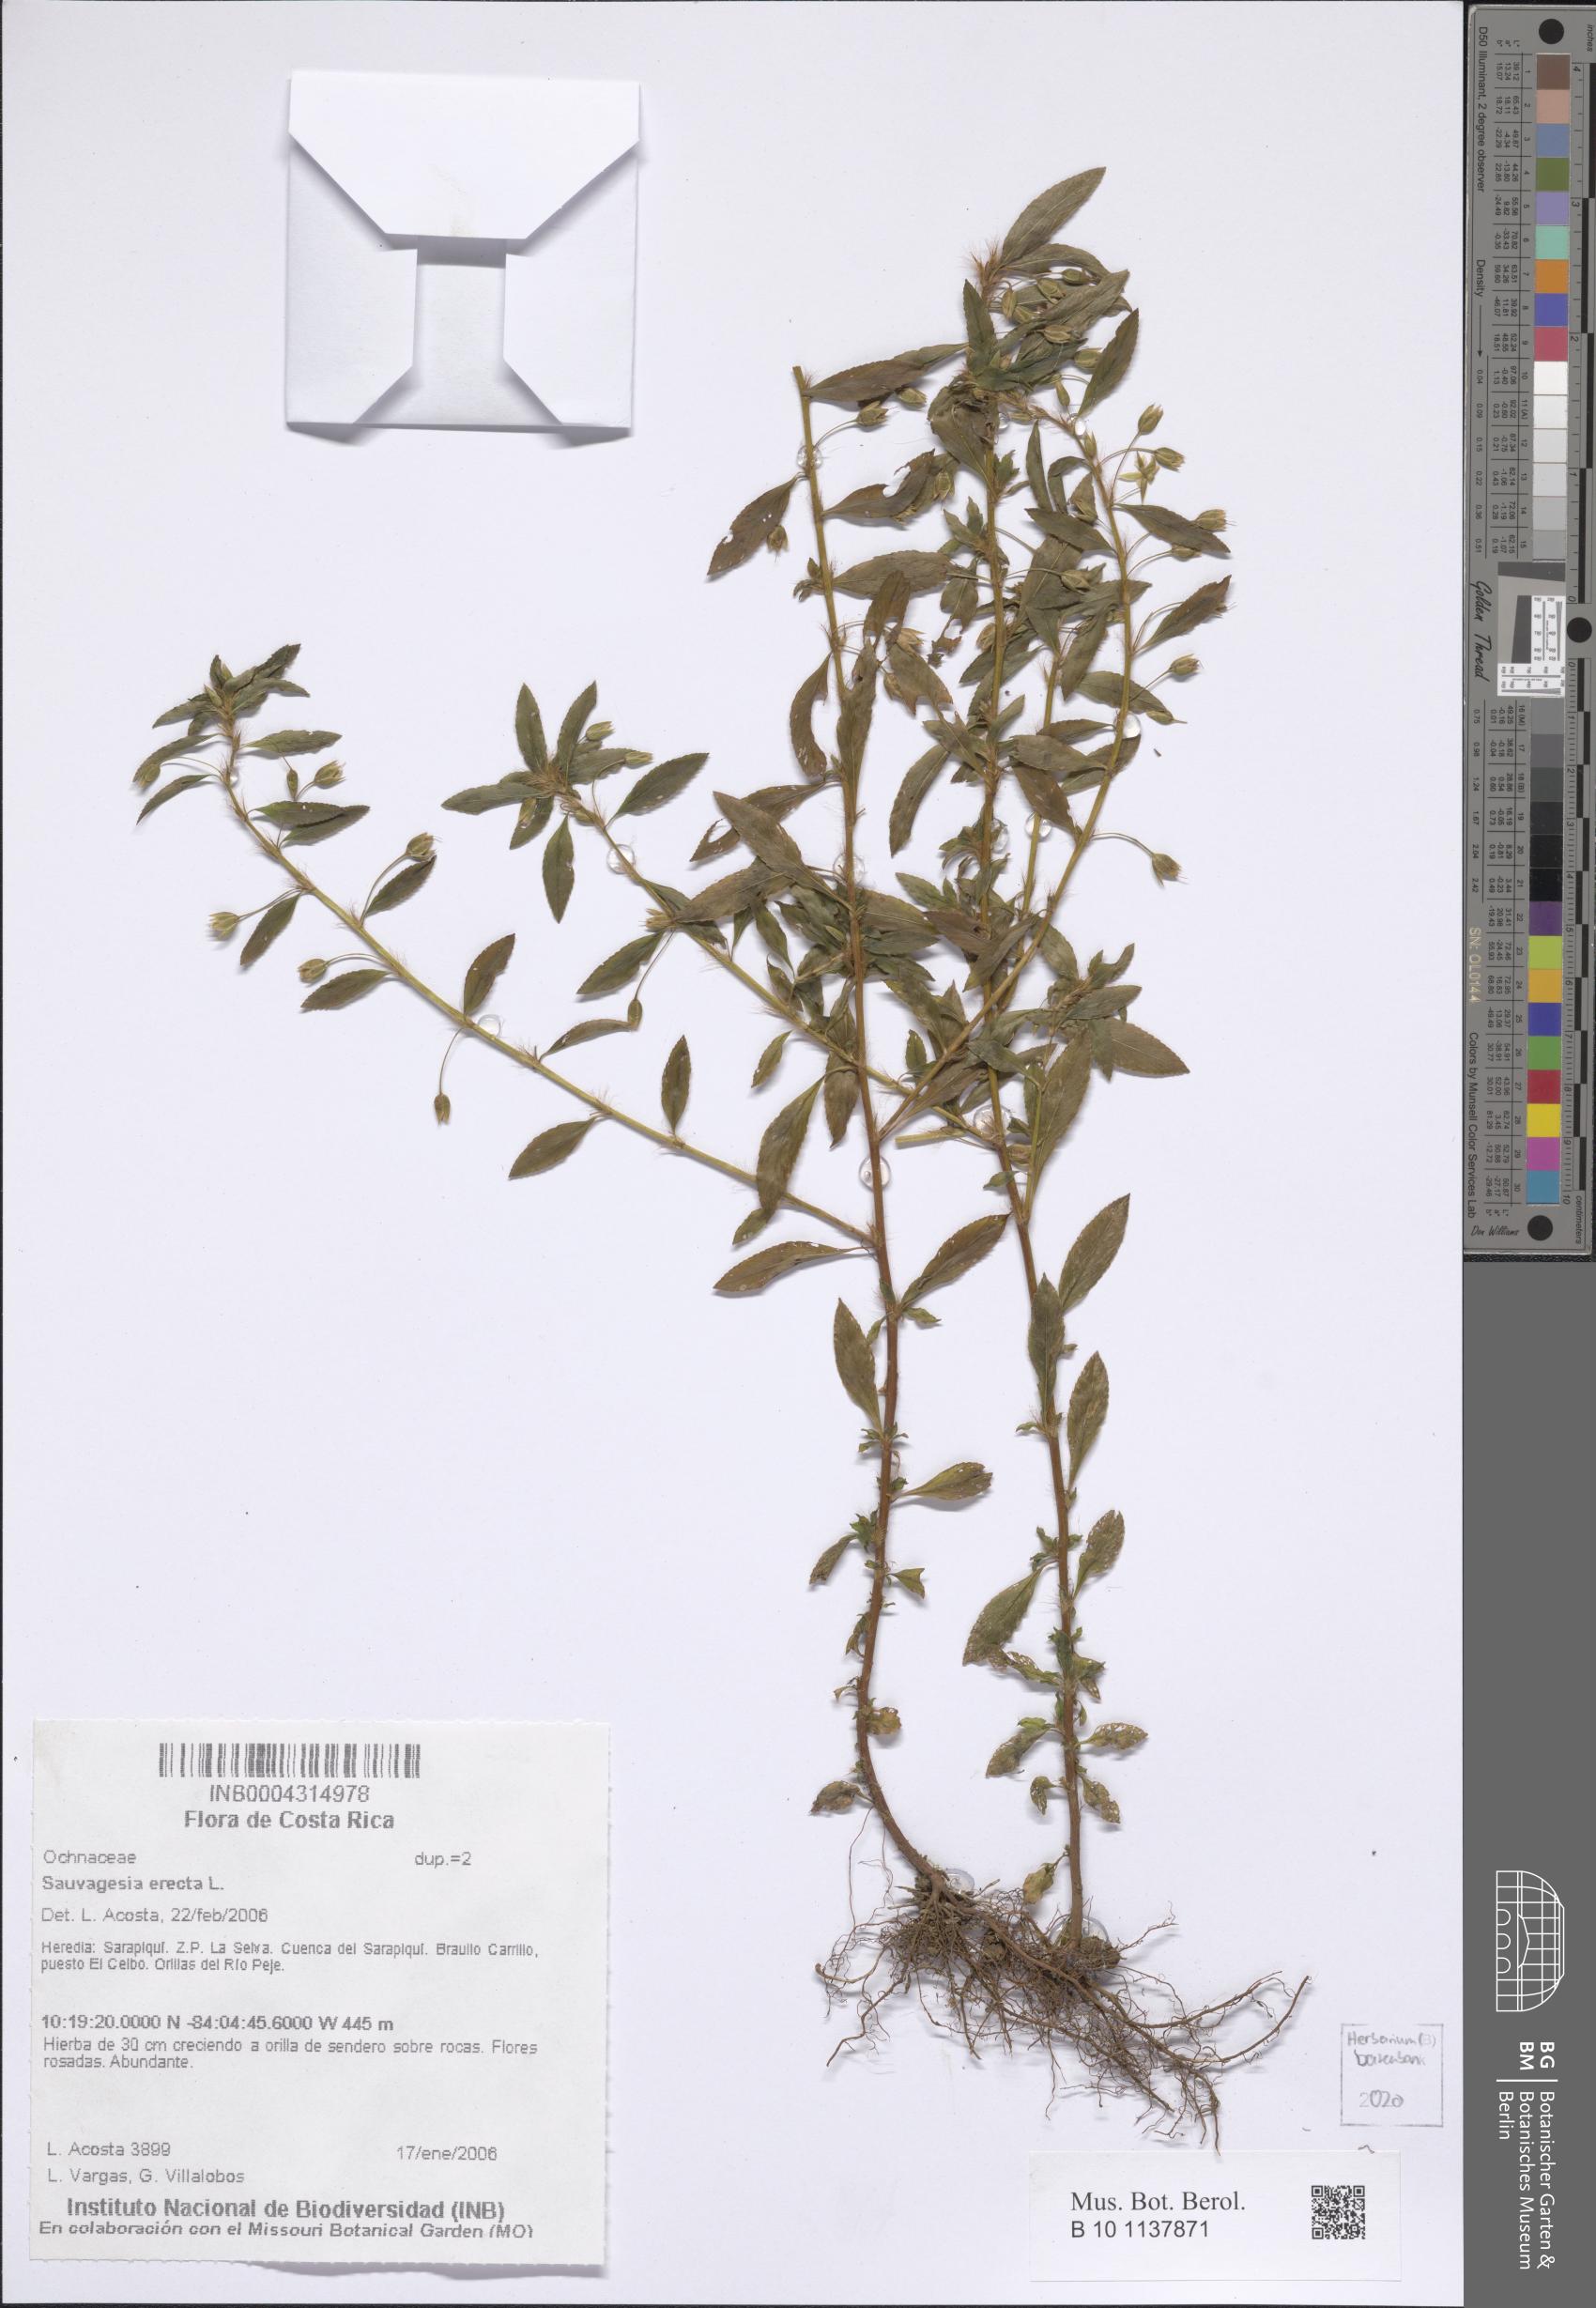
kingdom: Plantae
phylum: Tracheophyta
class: Magnoliopsida
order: Malpighiales
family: Ochnaceae
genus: Sauvagesia
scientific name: Sauvagesia erecta
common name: Creole tea
